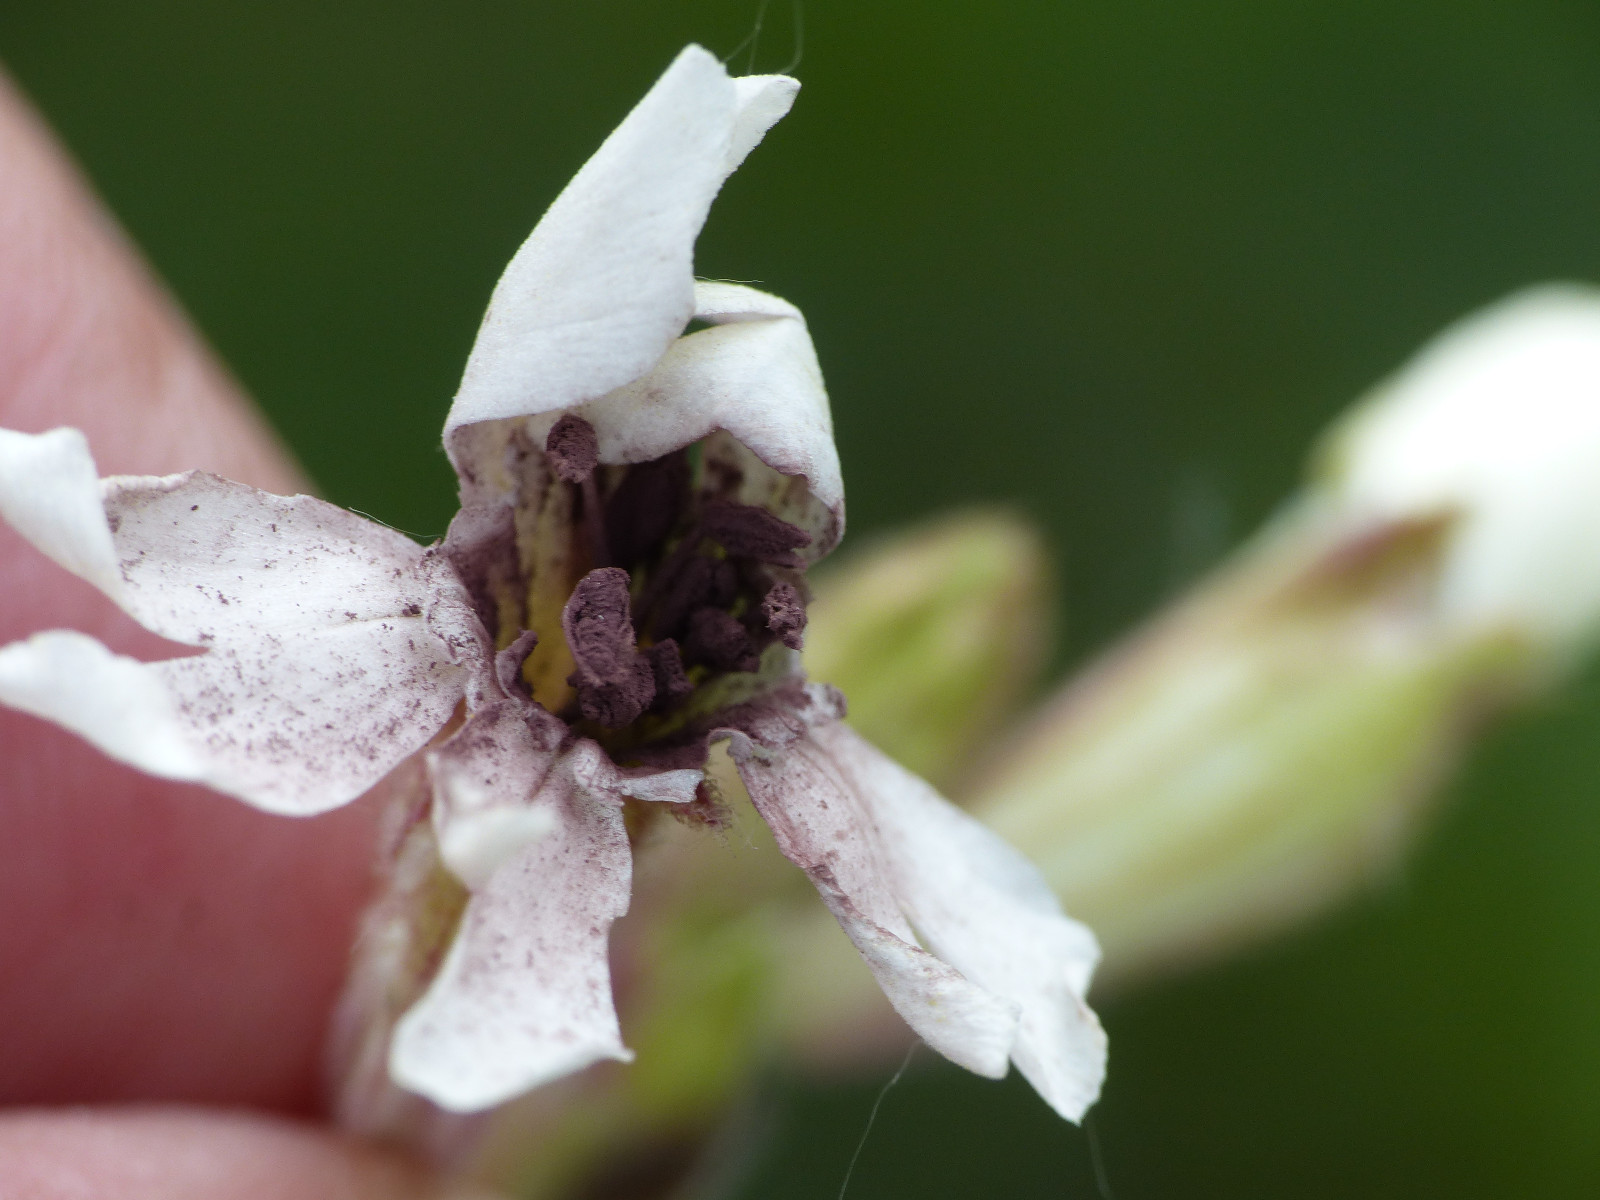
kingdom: Fungi
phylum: Basidiomycota
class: Microbotryomycetes
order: Microbotryales
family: Microbotryaceae
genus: Microbotryum
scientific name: Microbotryum lychnidis-dioicae
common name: Campion anther smut
